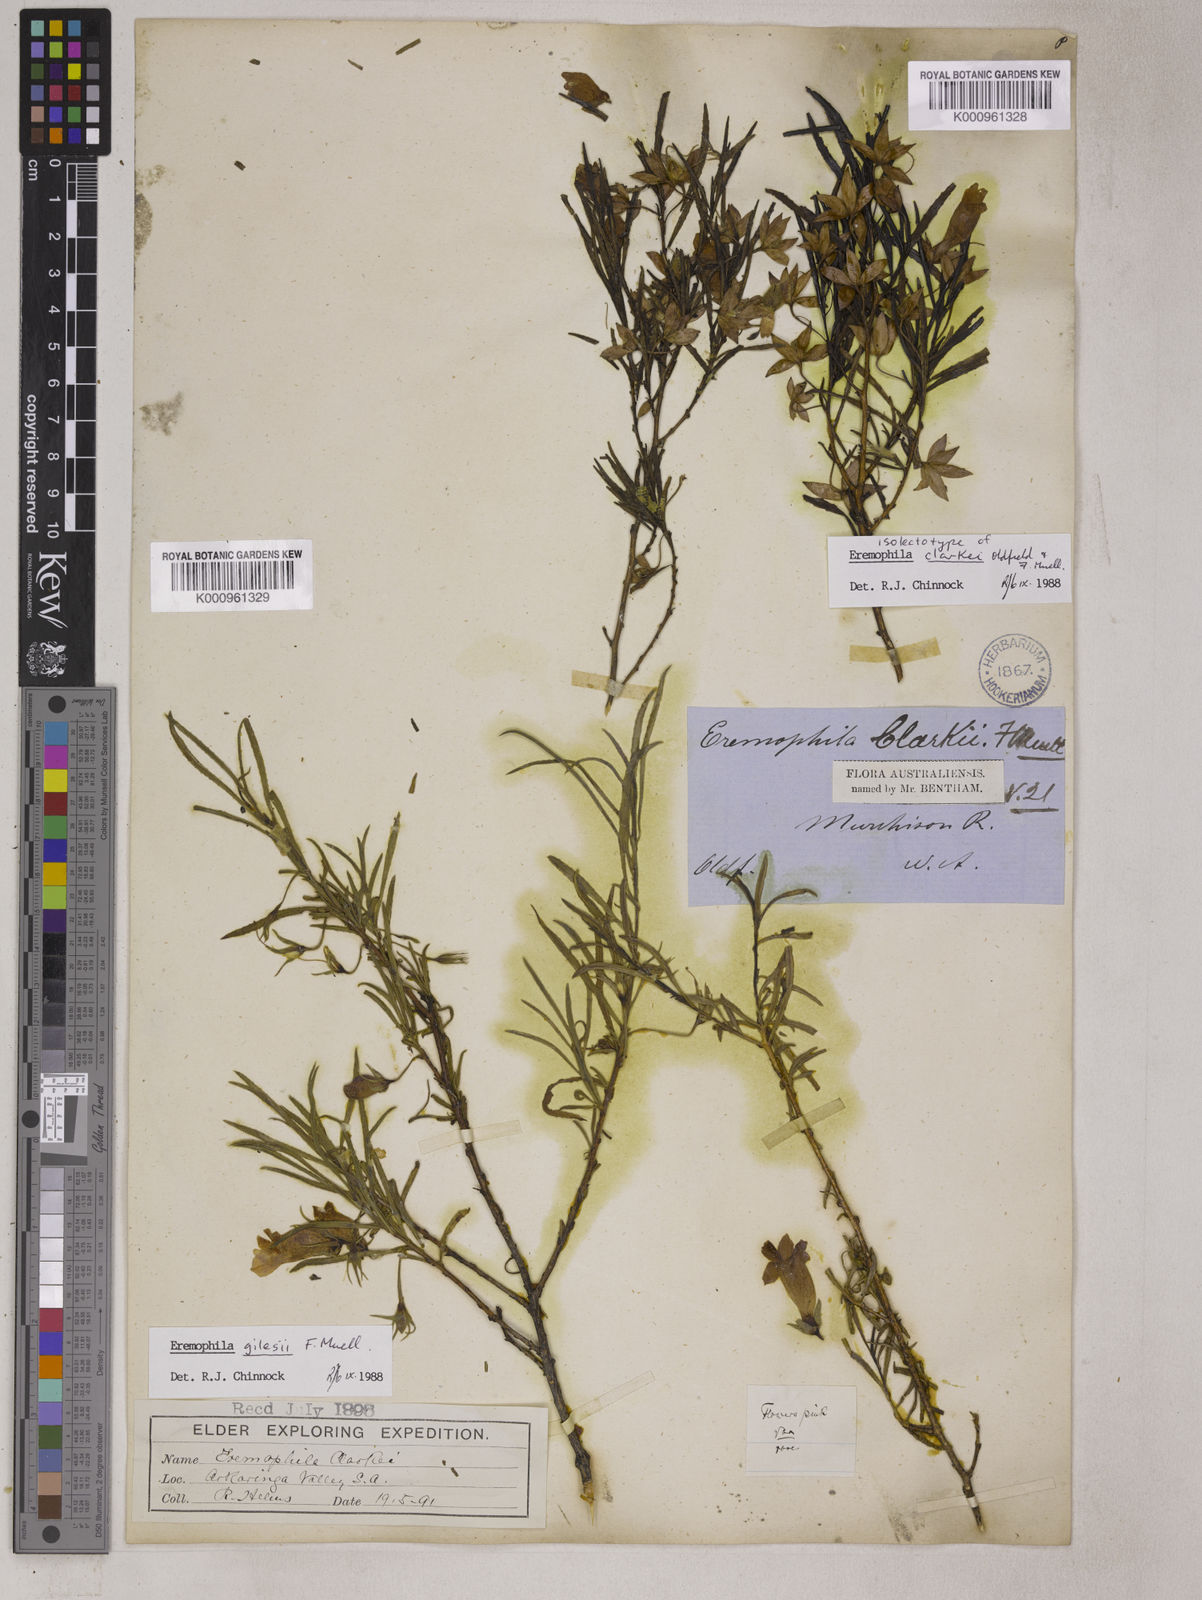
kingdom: Plantae
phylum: Tracheophyta
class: Magnoliopsida
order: Lamiales
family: Scrophulariaceae
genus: Eremophila
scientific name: Eremophila clarkei
